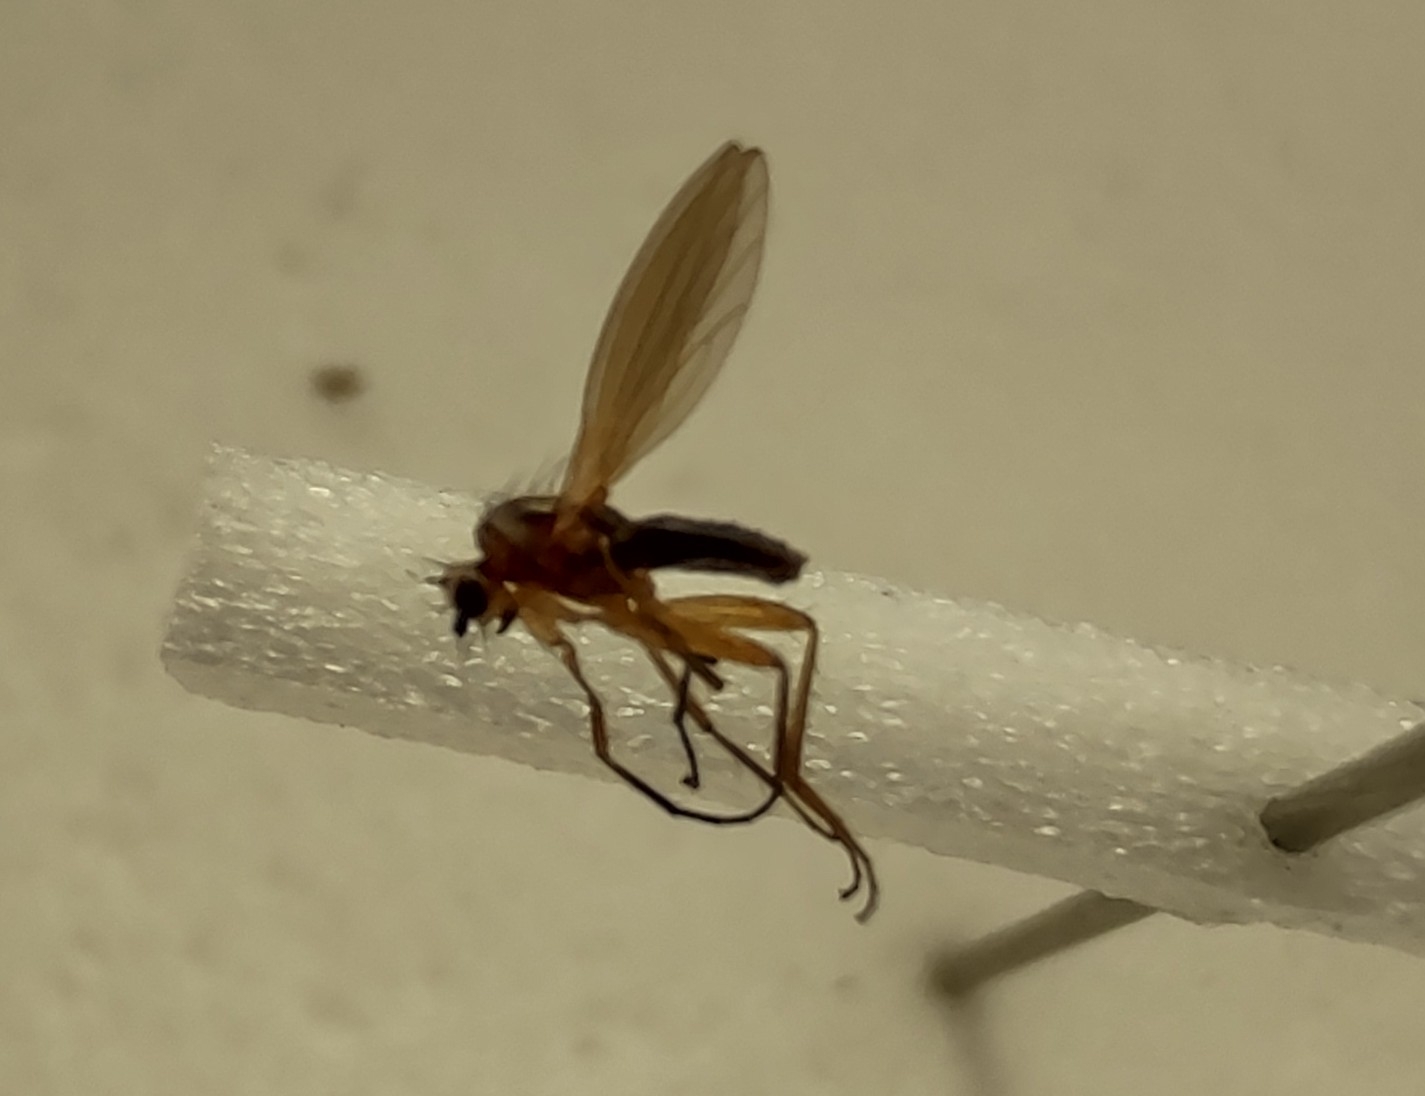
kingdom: Animalia
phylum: Arthropoda
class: Insecta
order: Diptera
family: Lonchopteridae
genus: Lonchoptera
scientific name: Lonchoptera lutea
